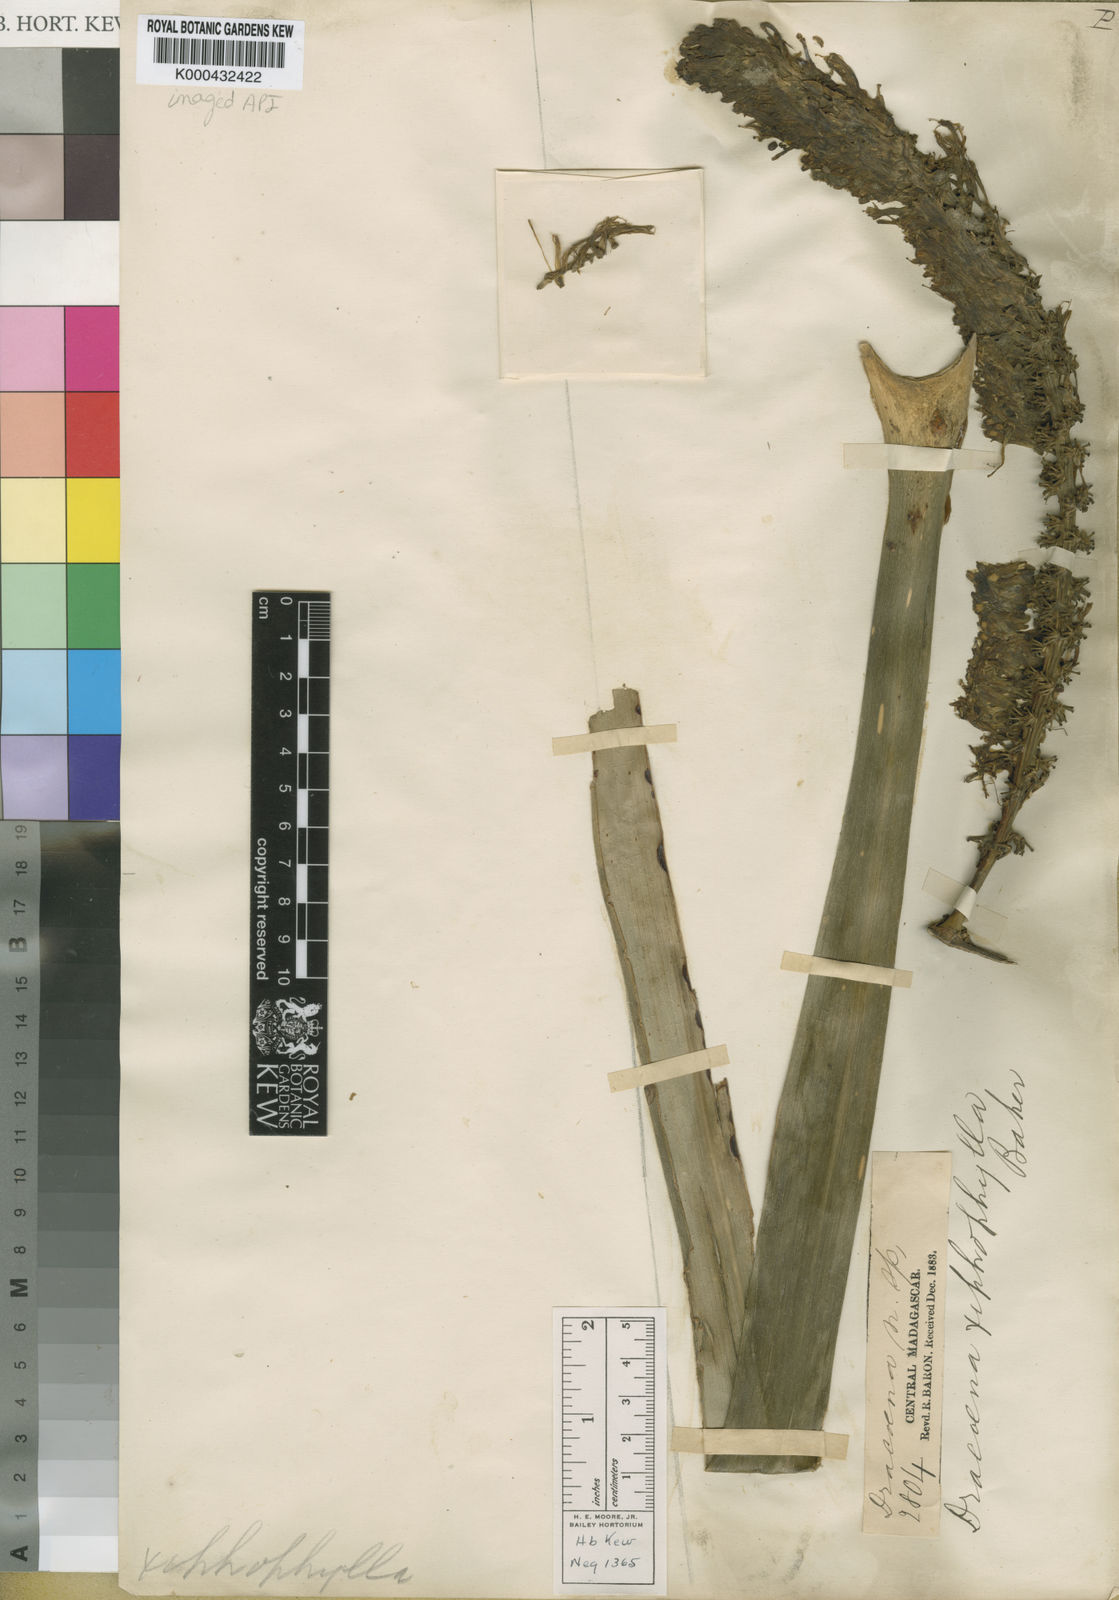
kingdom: Plantae
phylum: Tracheophyta
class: Liliopsida
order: Asparagales
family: Asparagaceae
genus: Dracaena
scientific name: Dracaena xiphophylla
